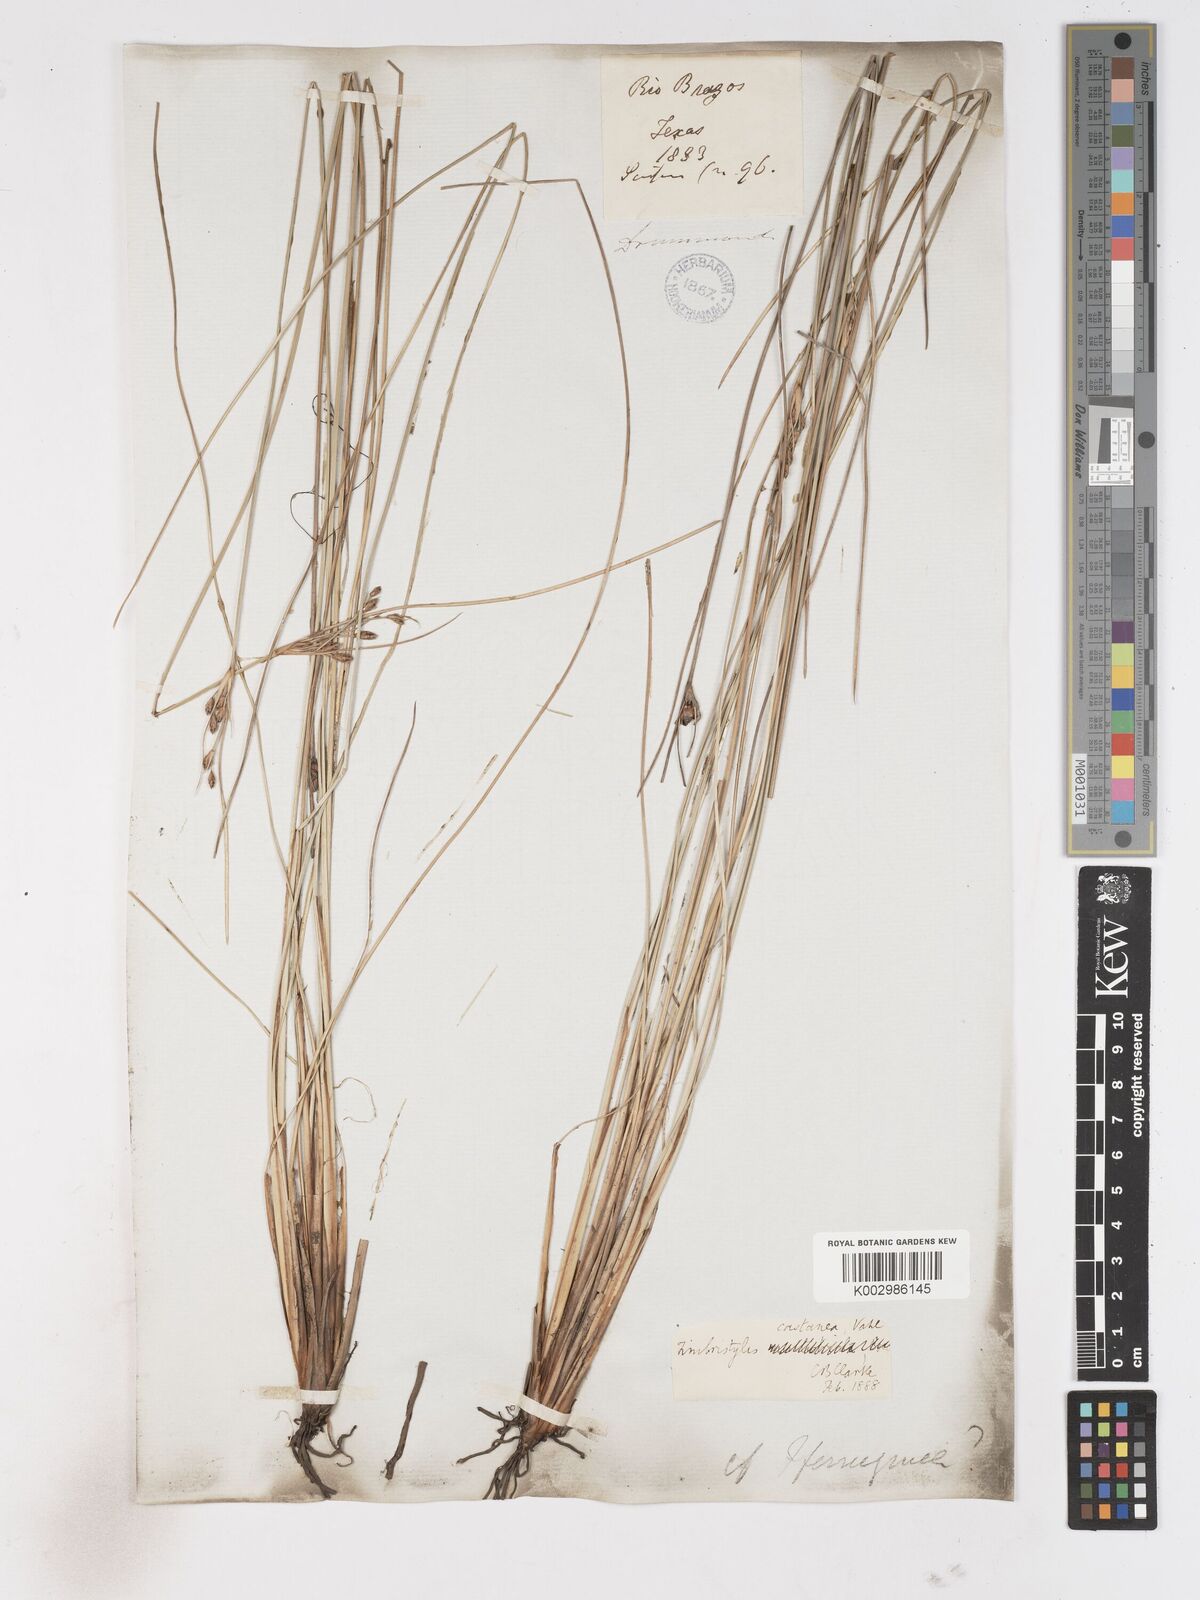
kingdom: Plantae
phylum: Tracheophyta
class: Liliopsida
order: Poales
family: Cyperaceae
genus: Fimbristylis
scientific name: Fimbristylis spadicea
